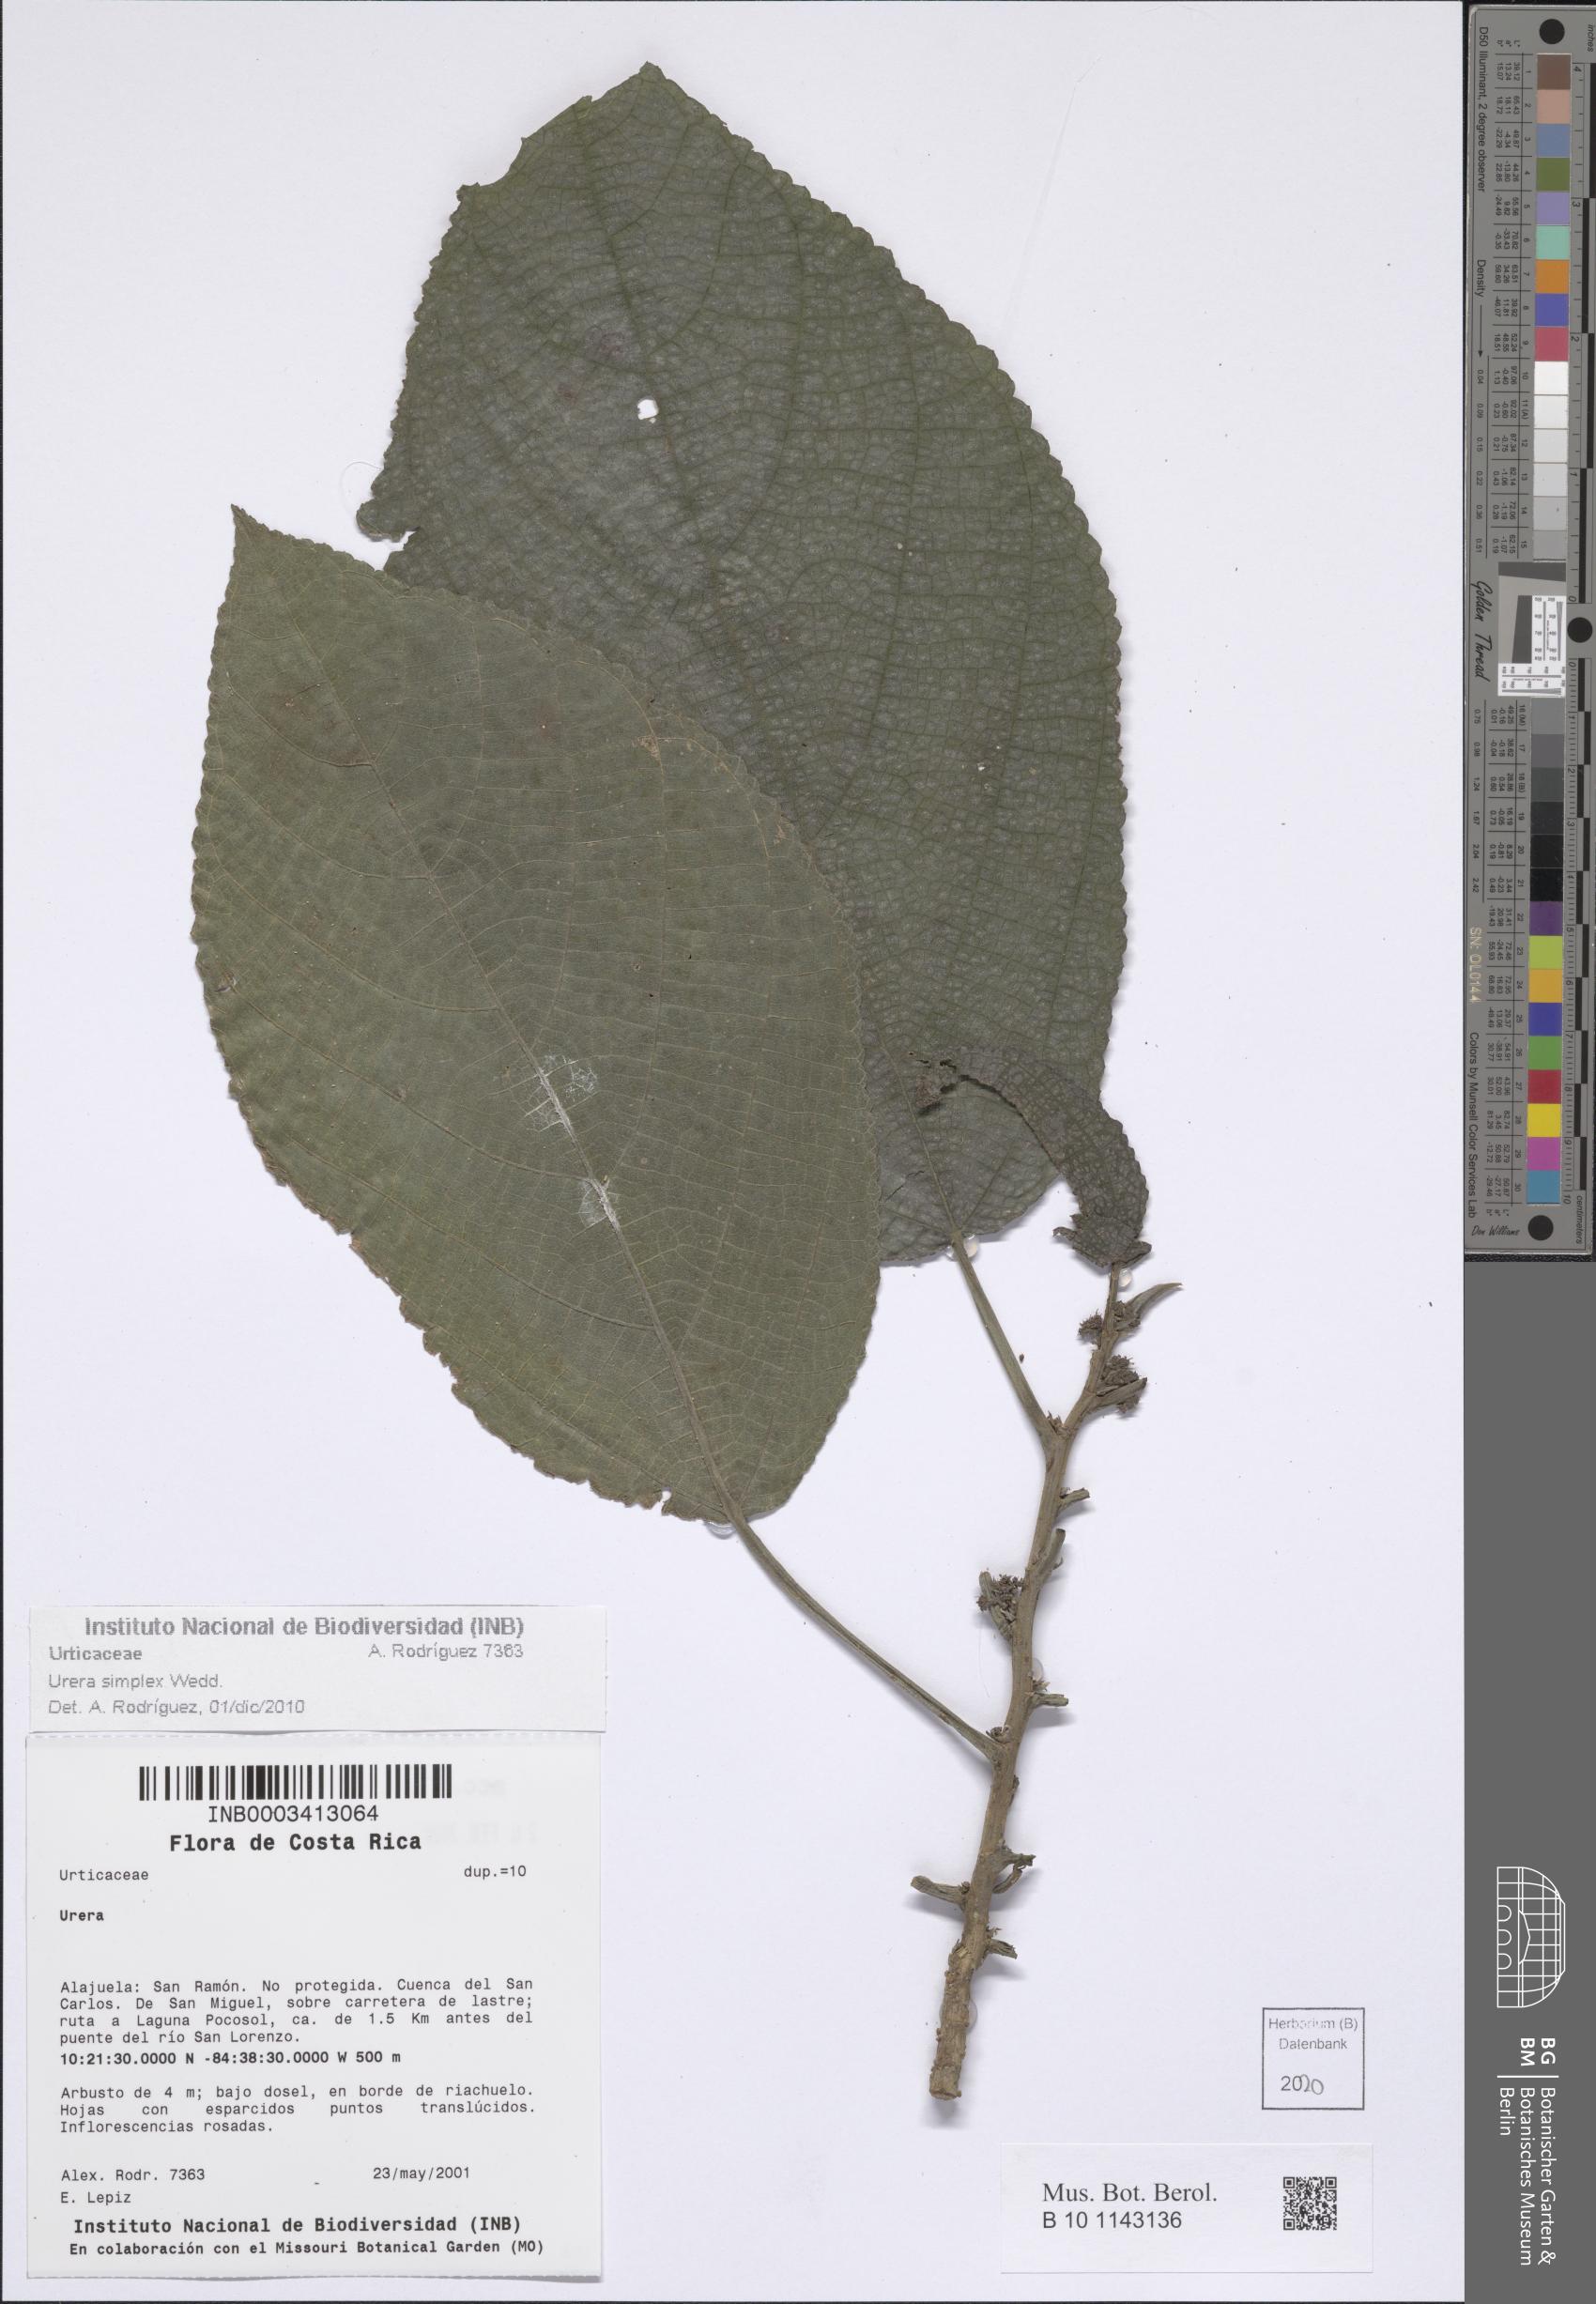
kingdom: Plantae
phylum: Tracheophyta
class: Magnoliopsida
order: Rosales
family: Urticaceae
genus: Urera
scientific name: Urera simplex
